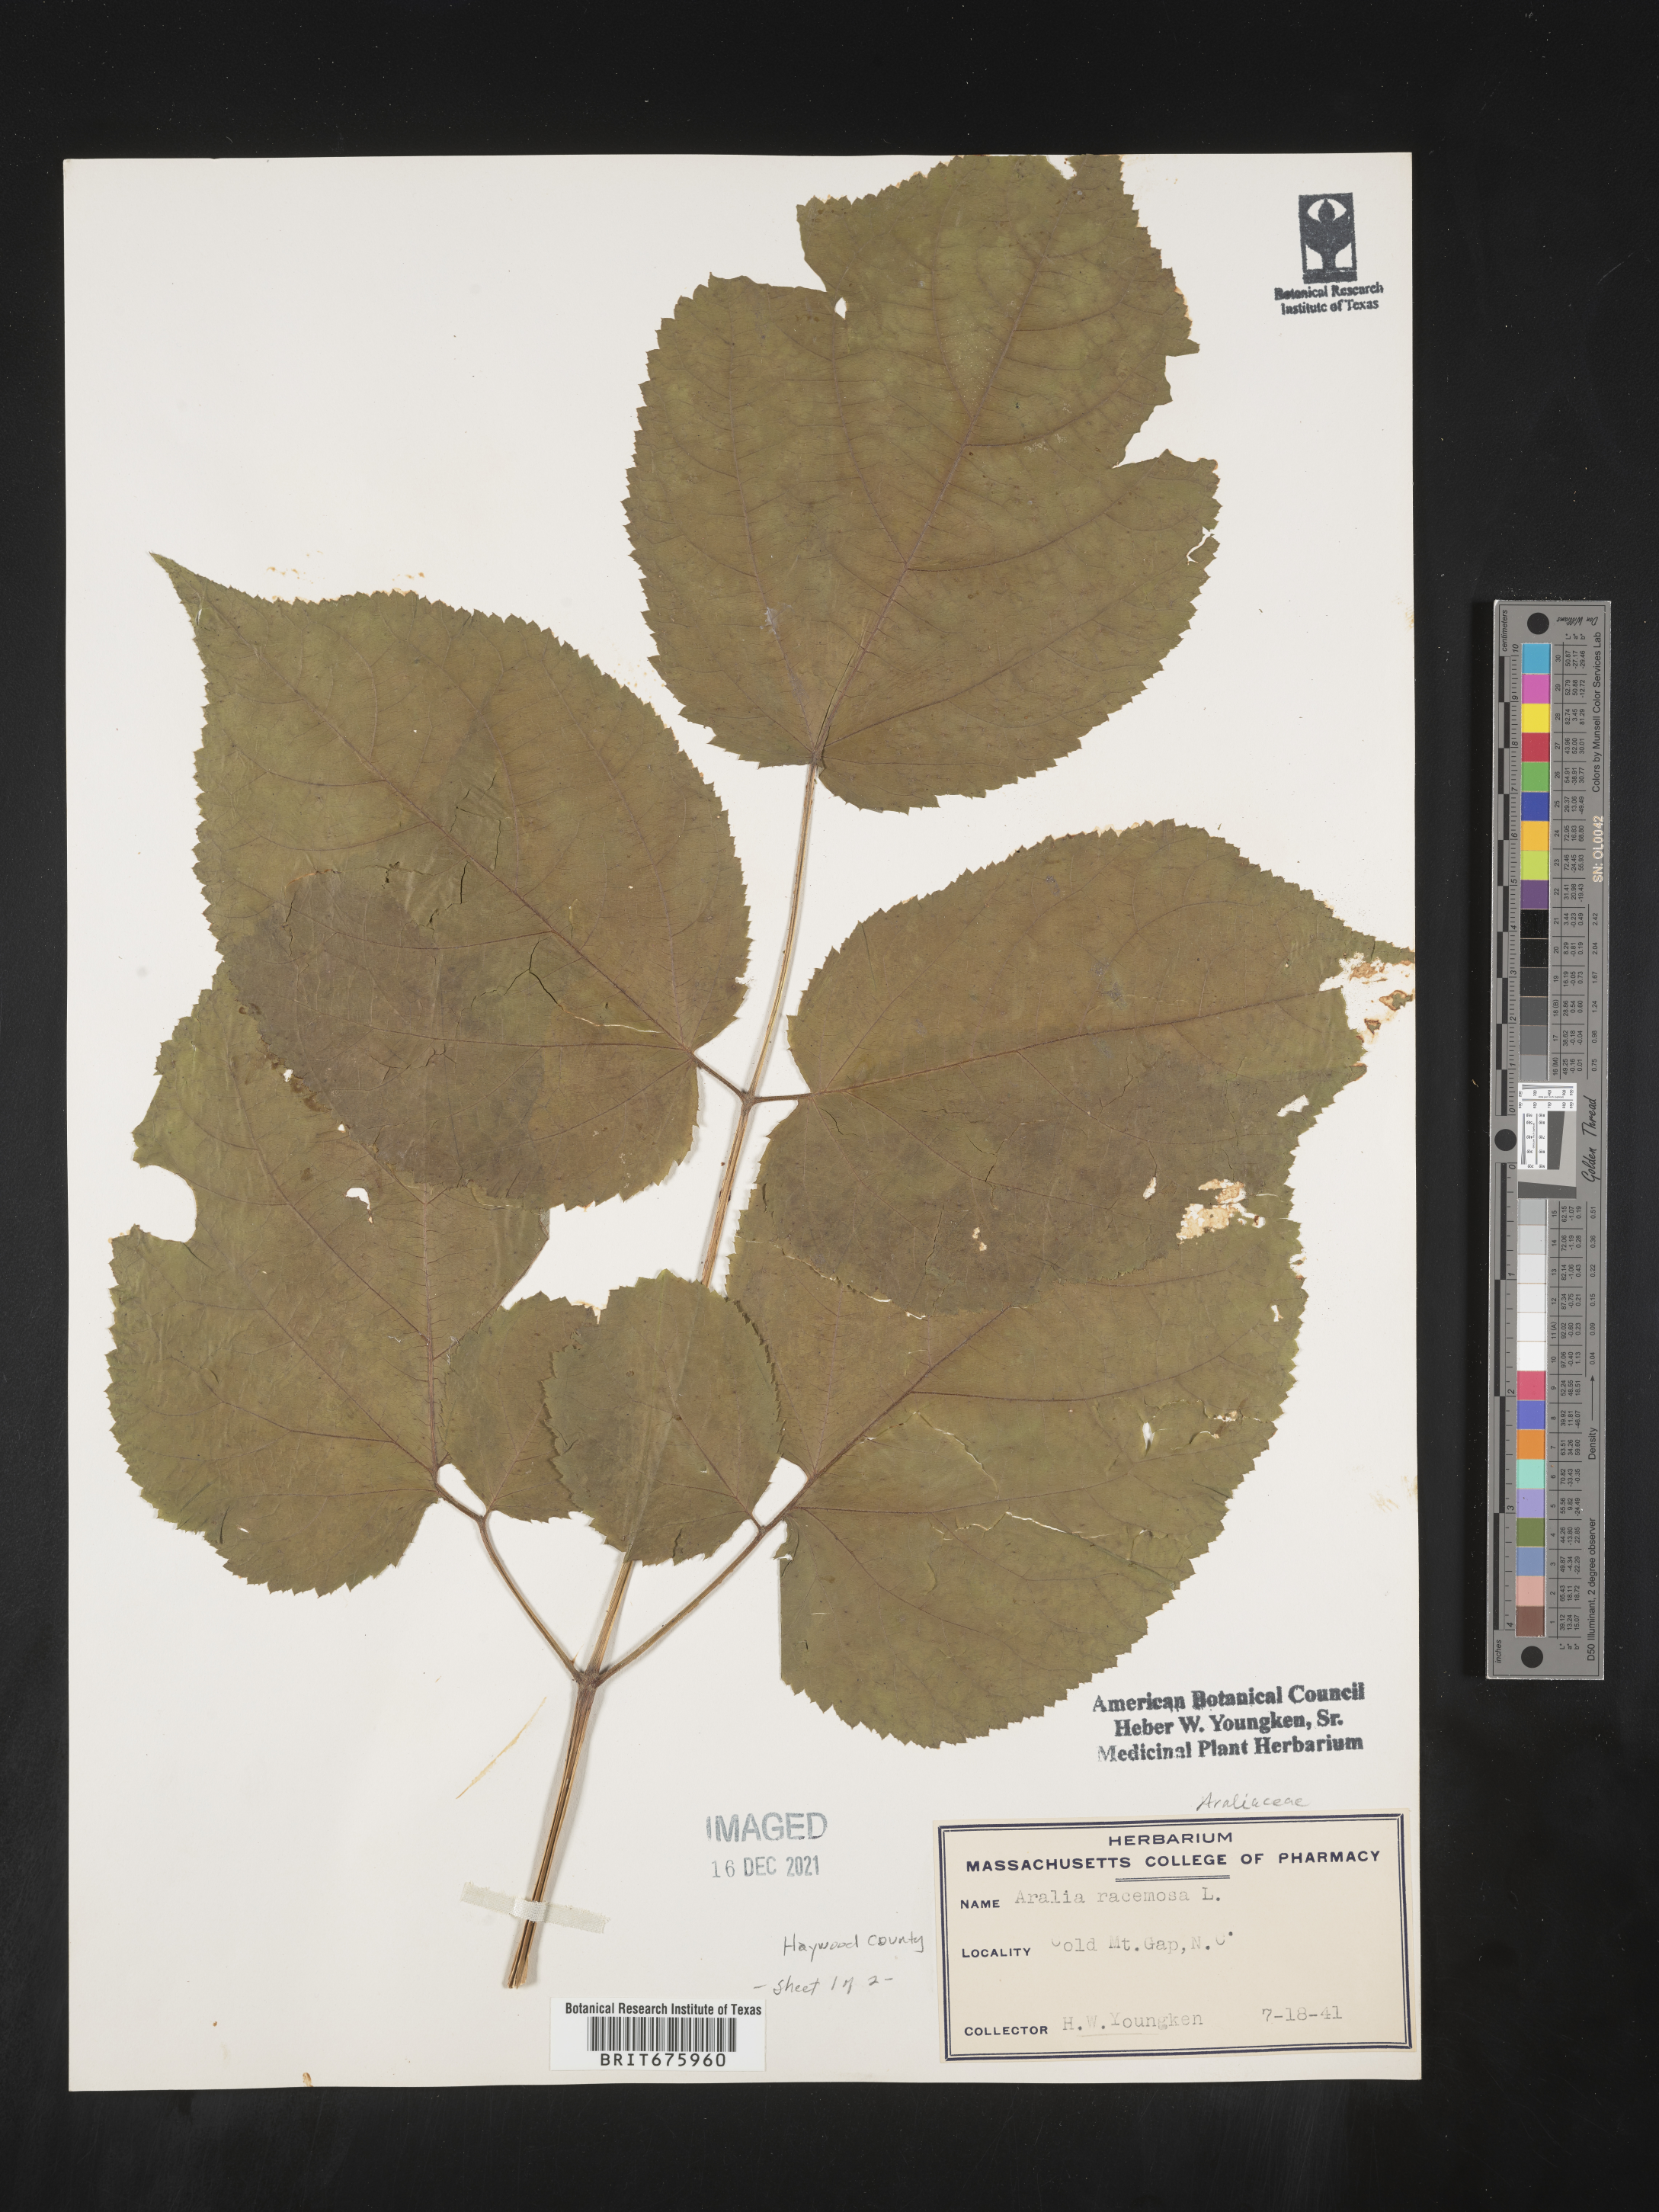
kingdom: Plantae
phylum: Tracheophyta
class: Magnoliopsida
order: Apiales
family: Araliaceae
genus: Aralia
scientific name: Aralia racemosa
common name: American-spikenard
